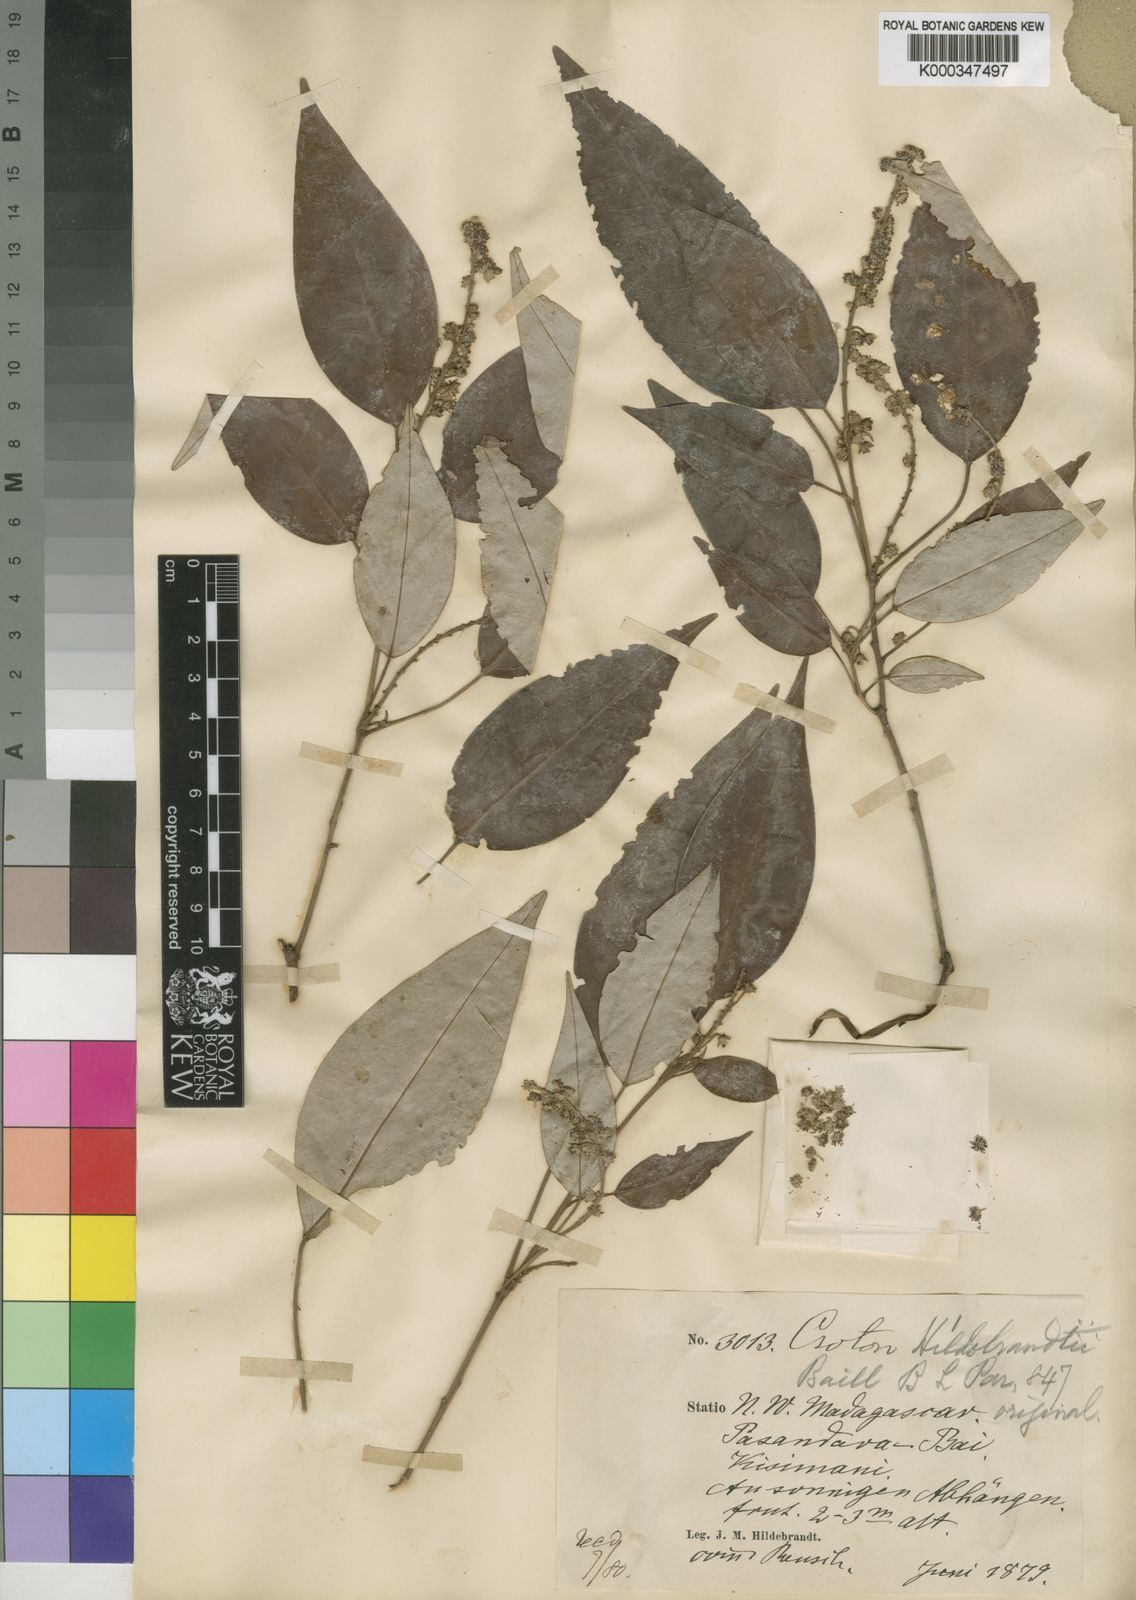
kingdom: Plantae
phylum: Tracheophyta
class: Magnoliopsida
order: Malpighiales
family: Euphorbiaceae
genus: Croton
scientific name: Croton hildebrandtii
